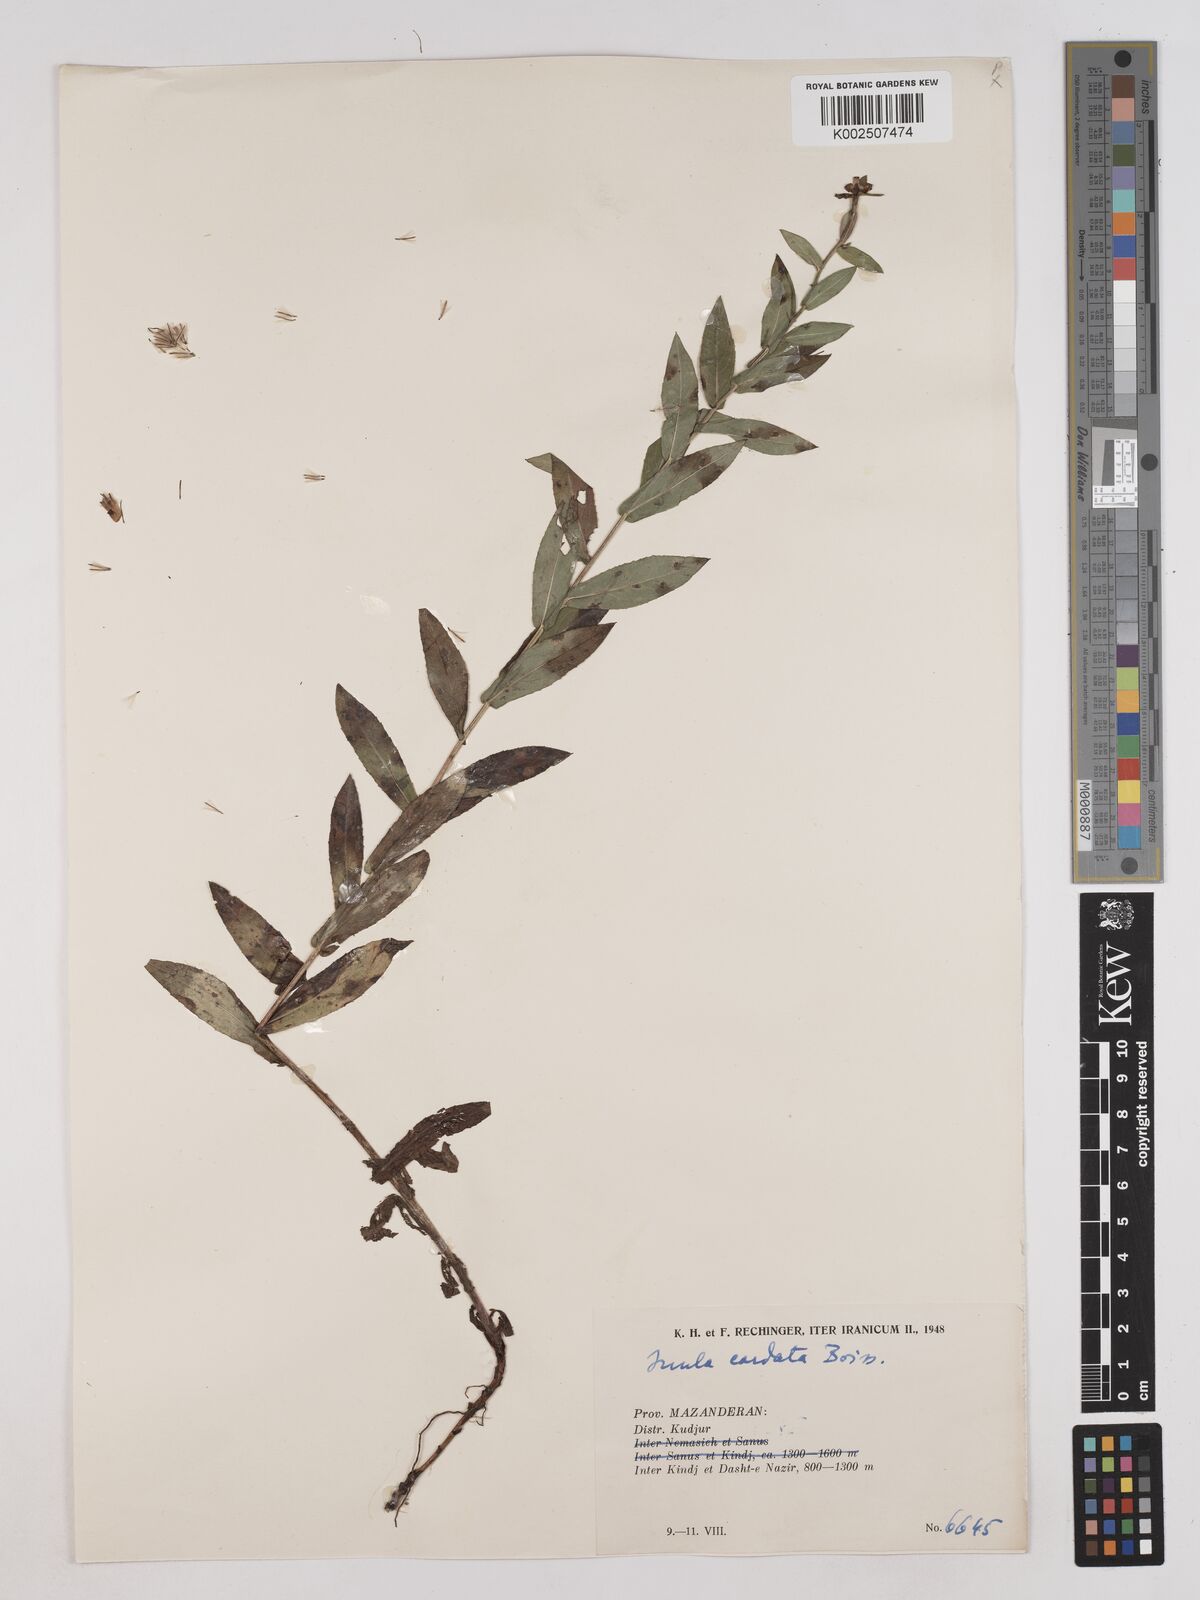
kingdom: Plantae
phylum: Tracheophyta
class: Magnoliopsida
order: Asterales
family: Asteraceae
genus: Pentanema
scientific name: Pentanema salicinum
